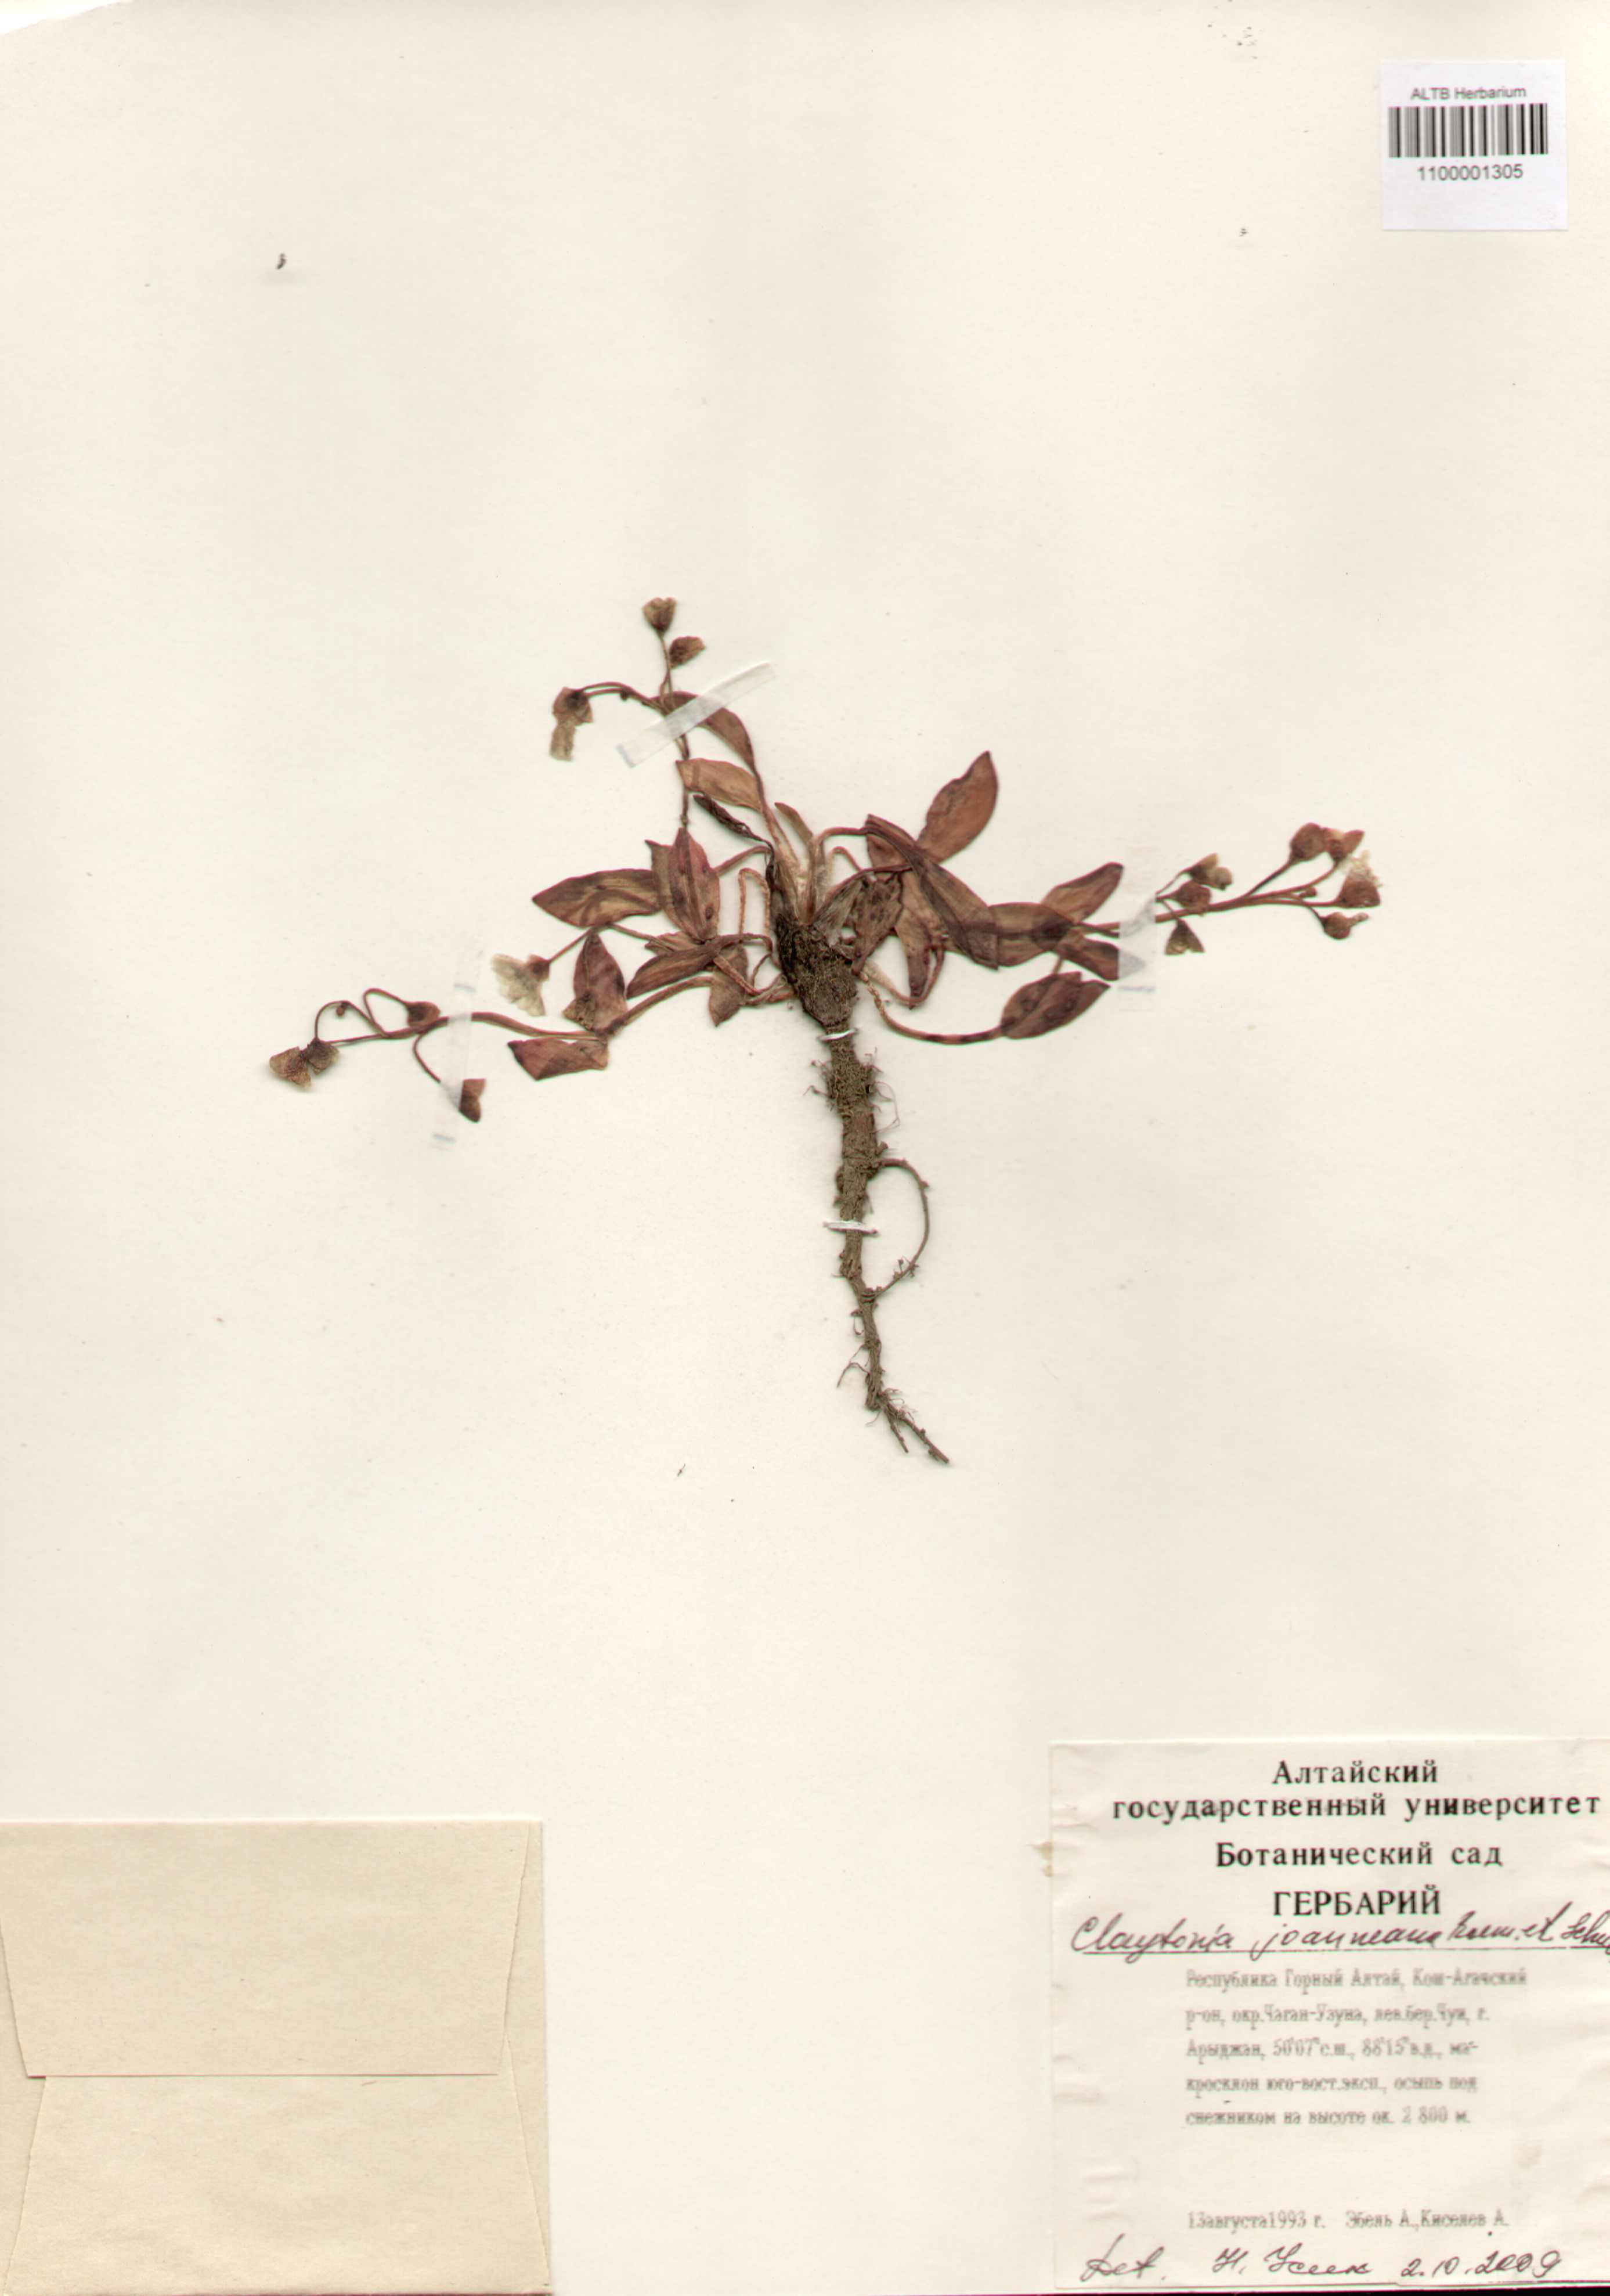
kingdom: Plantae
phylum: Tracheophyta
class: Magnoliopsida
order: Caryophyllales
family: Montiaceae
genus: Claytonia
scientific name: Claytonia joanneana
